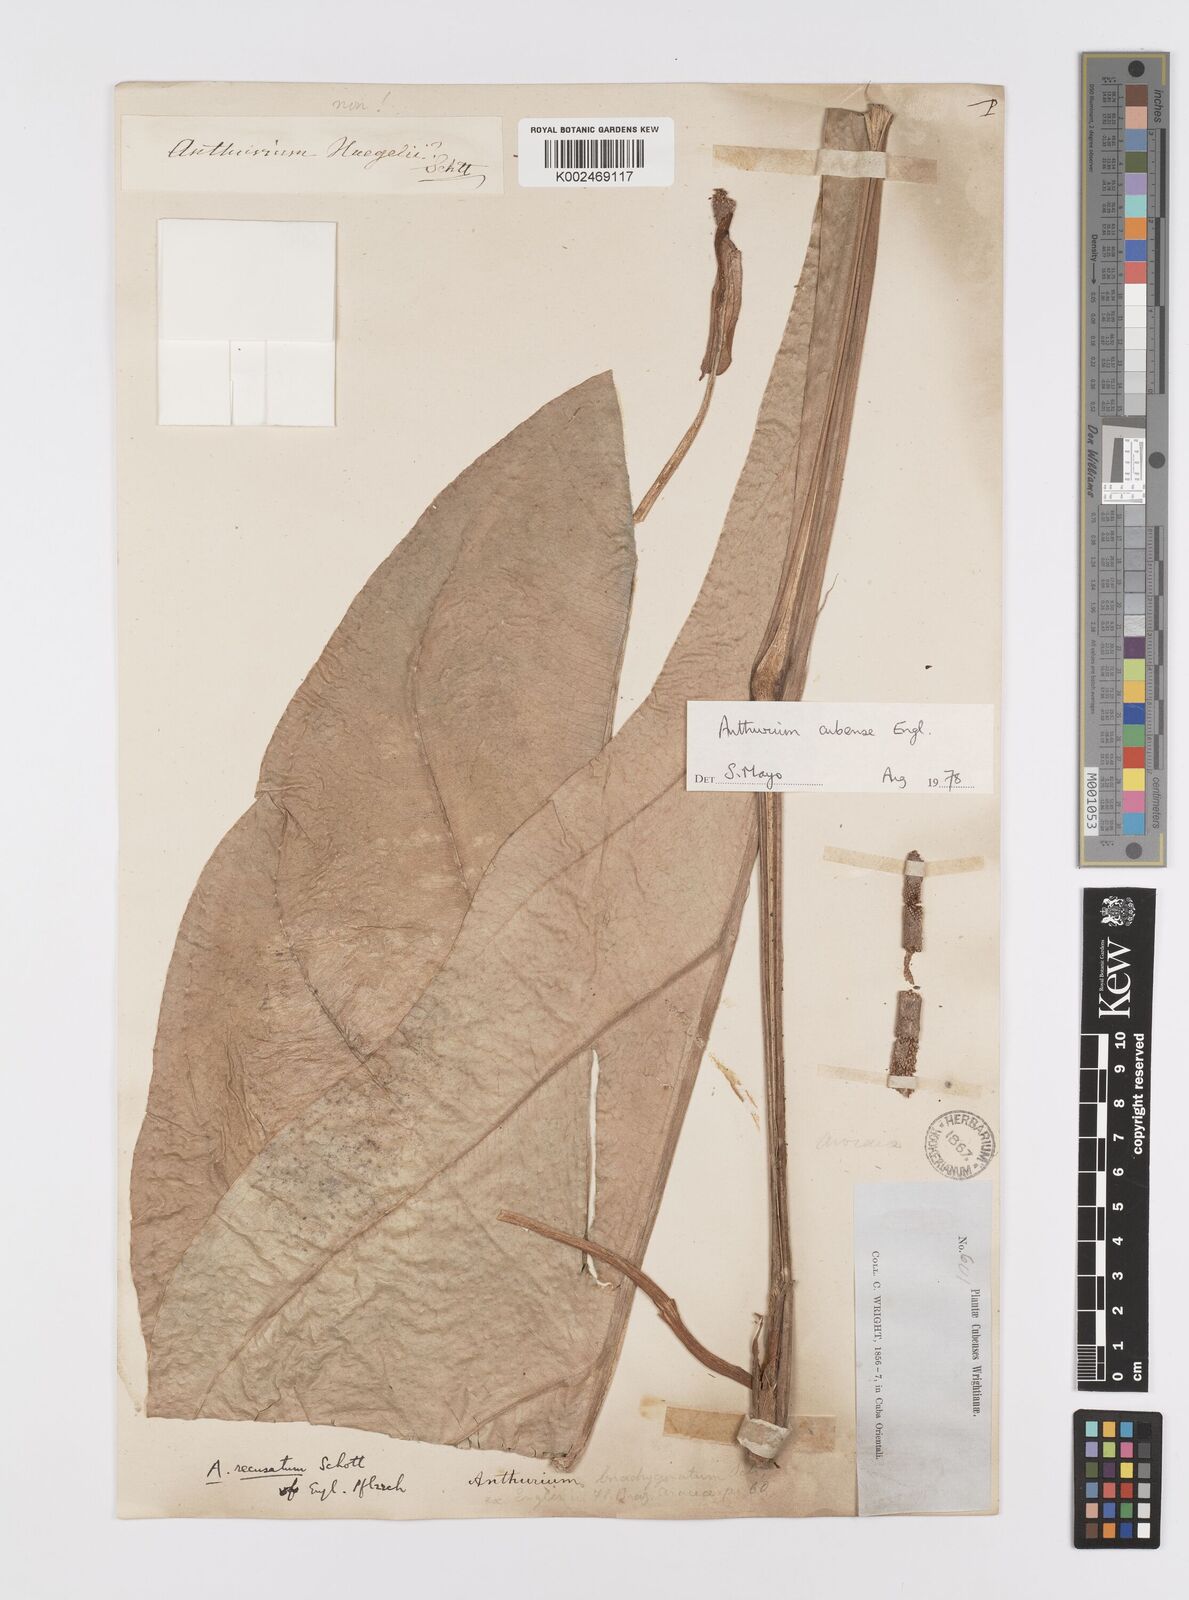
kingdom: Plantae
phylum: Tracheophyta
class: Liliopsida
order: Alismatales
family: Araceae
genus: Anthurium
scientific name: Anthurium cubense
